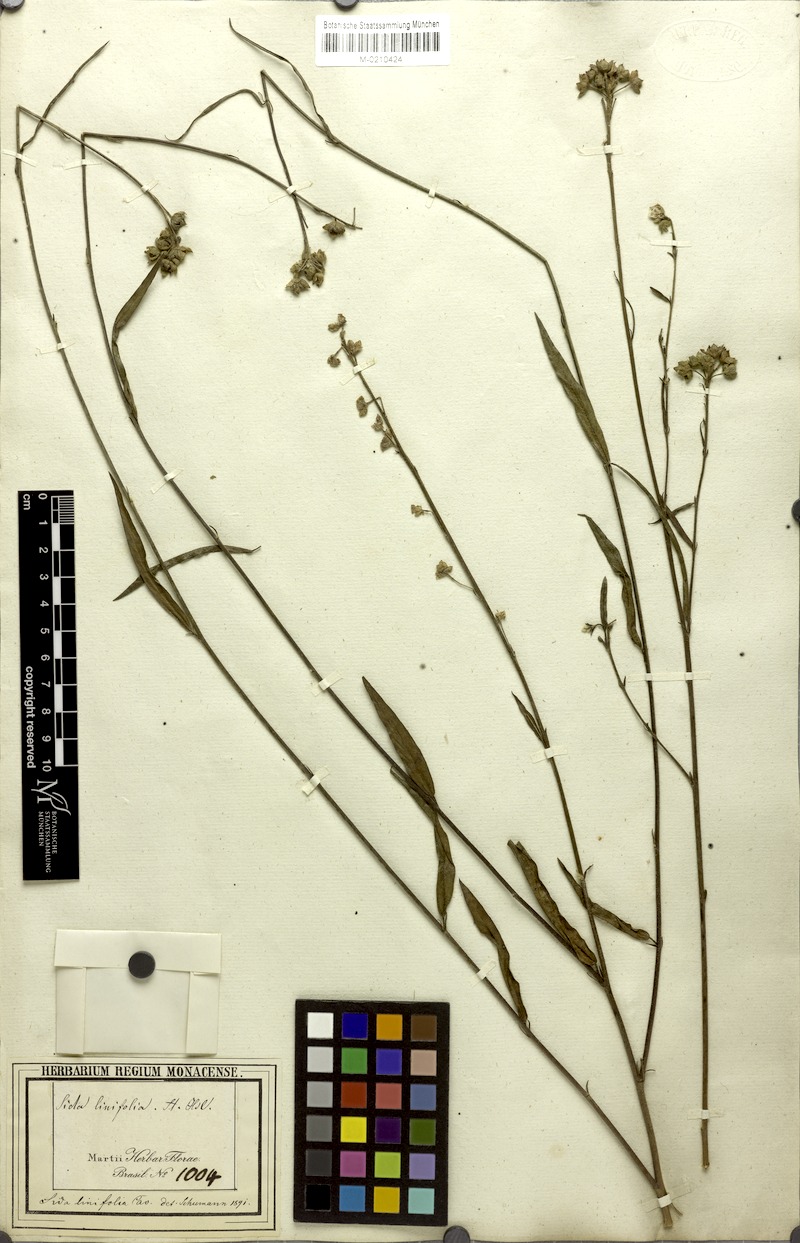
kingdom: Plantae
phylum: Tracheophyta
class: Magnoliopsida
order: Malvales
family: Malvaceae
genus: Sida
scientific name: Sida linifolia
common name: Flaxleaf fanpetals
